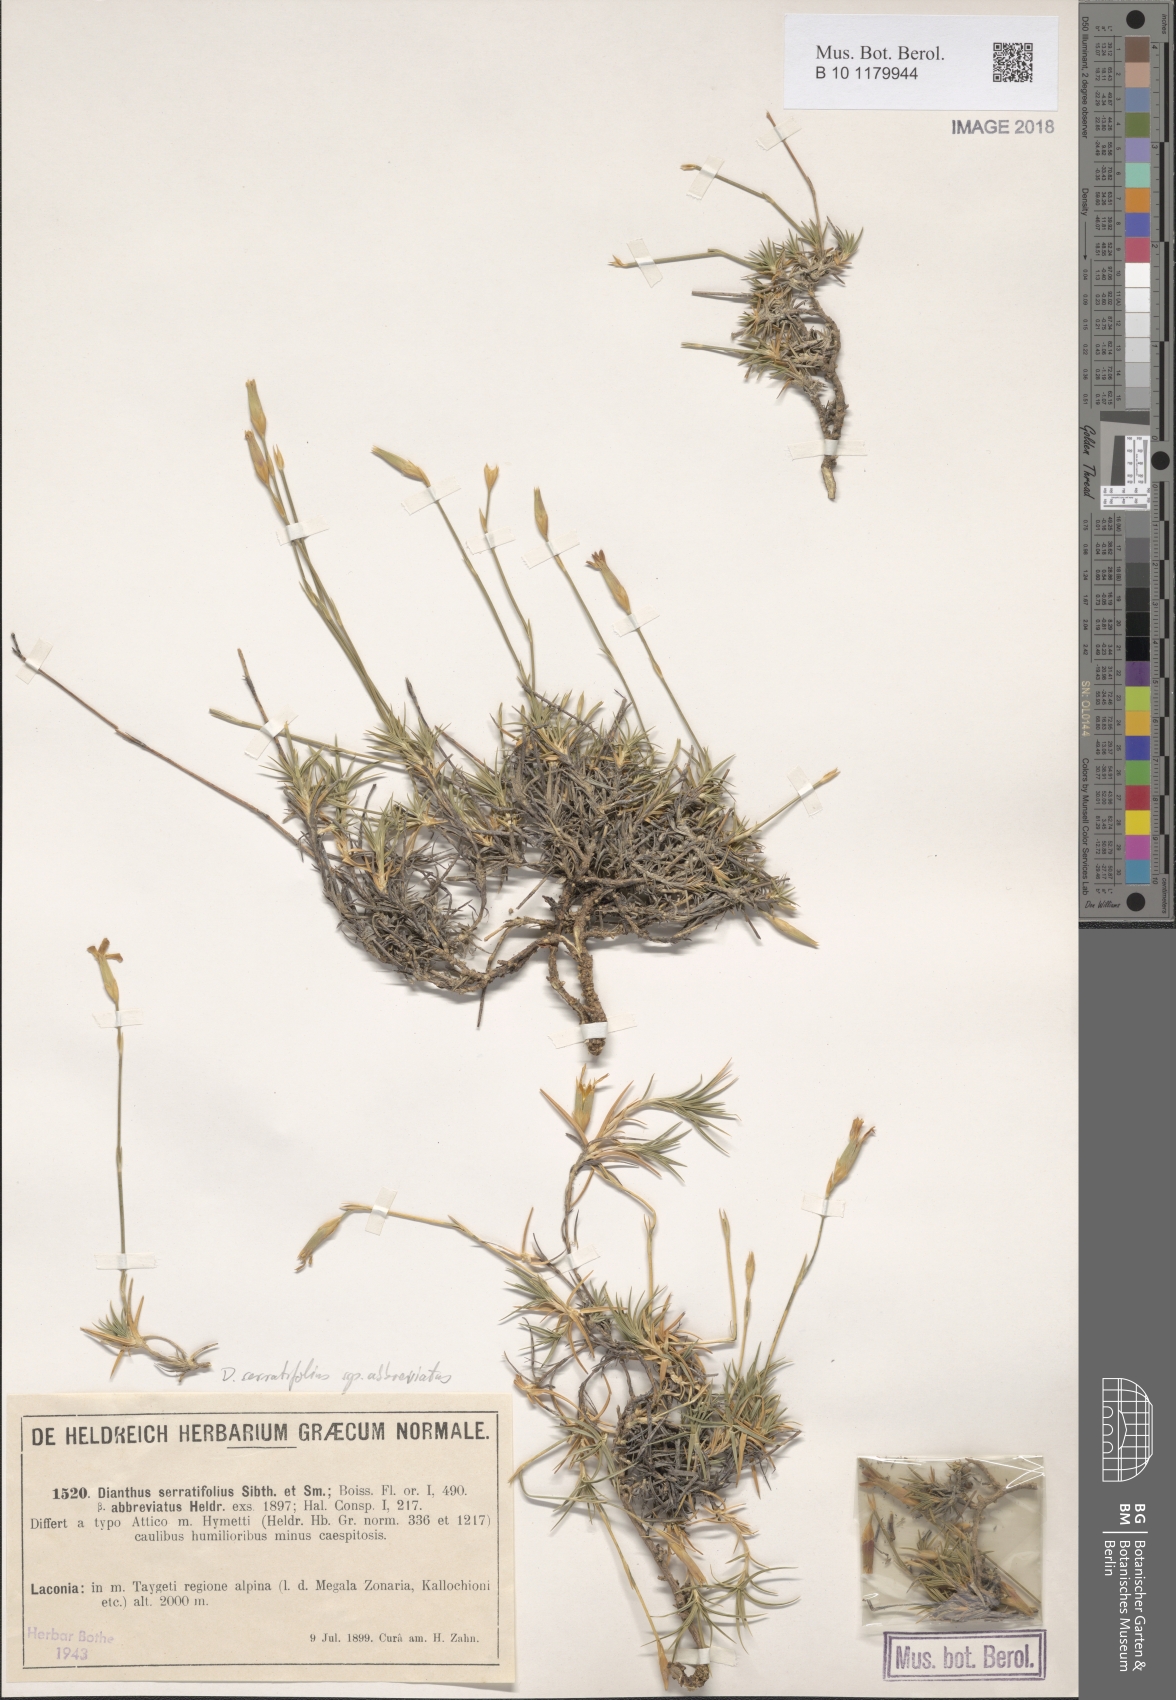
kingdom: Plantae
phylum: Tracheophyta
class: Magnoliopsida
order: Caryophyllales
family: Caryophyllaceae
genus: Dianthus
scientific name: Dianthus serratifolius
